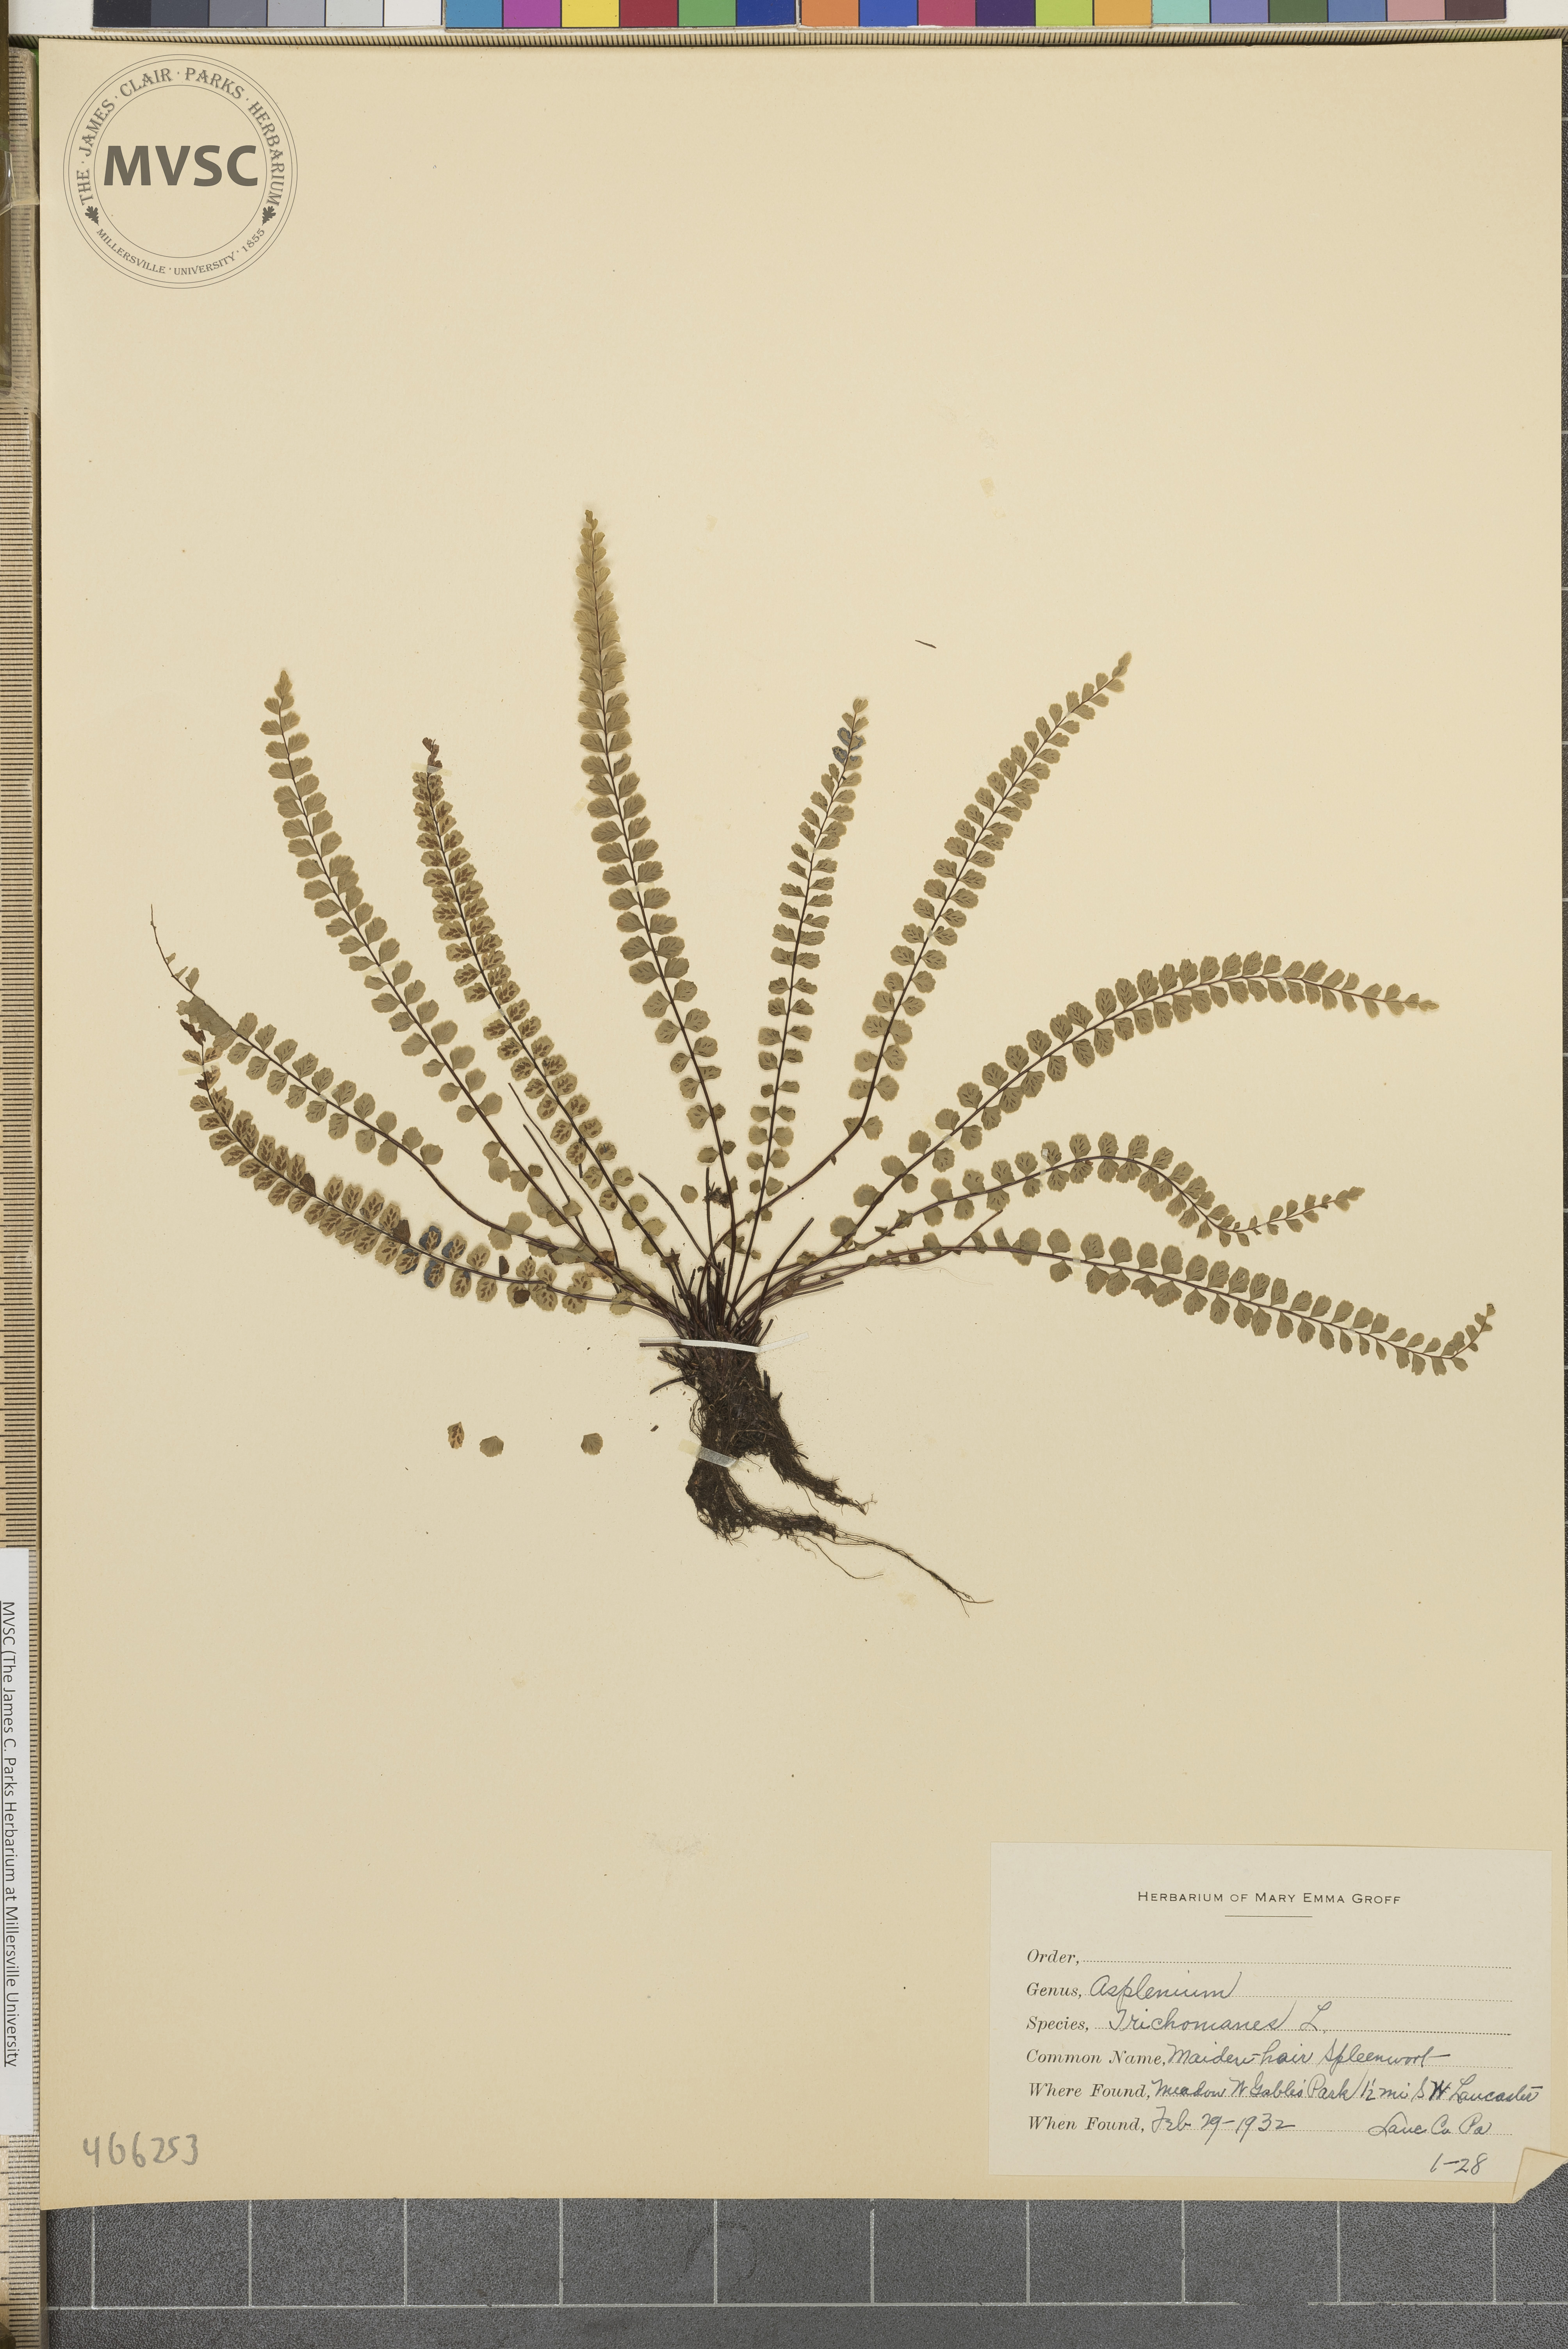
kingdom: Plantae
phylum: Tracheophyta
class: Polypodiopsida
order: Polypodiales
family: Aspleniaceae
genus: Asplenium
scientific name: Asplenium trichomanes
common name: Maidenhair spleenwort
